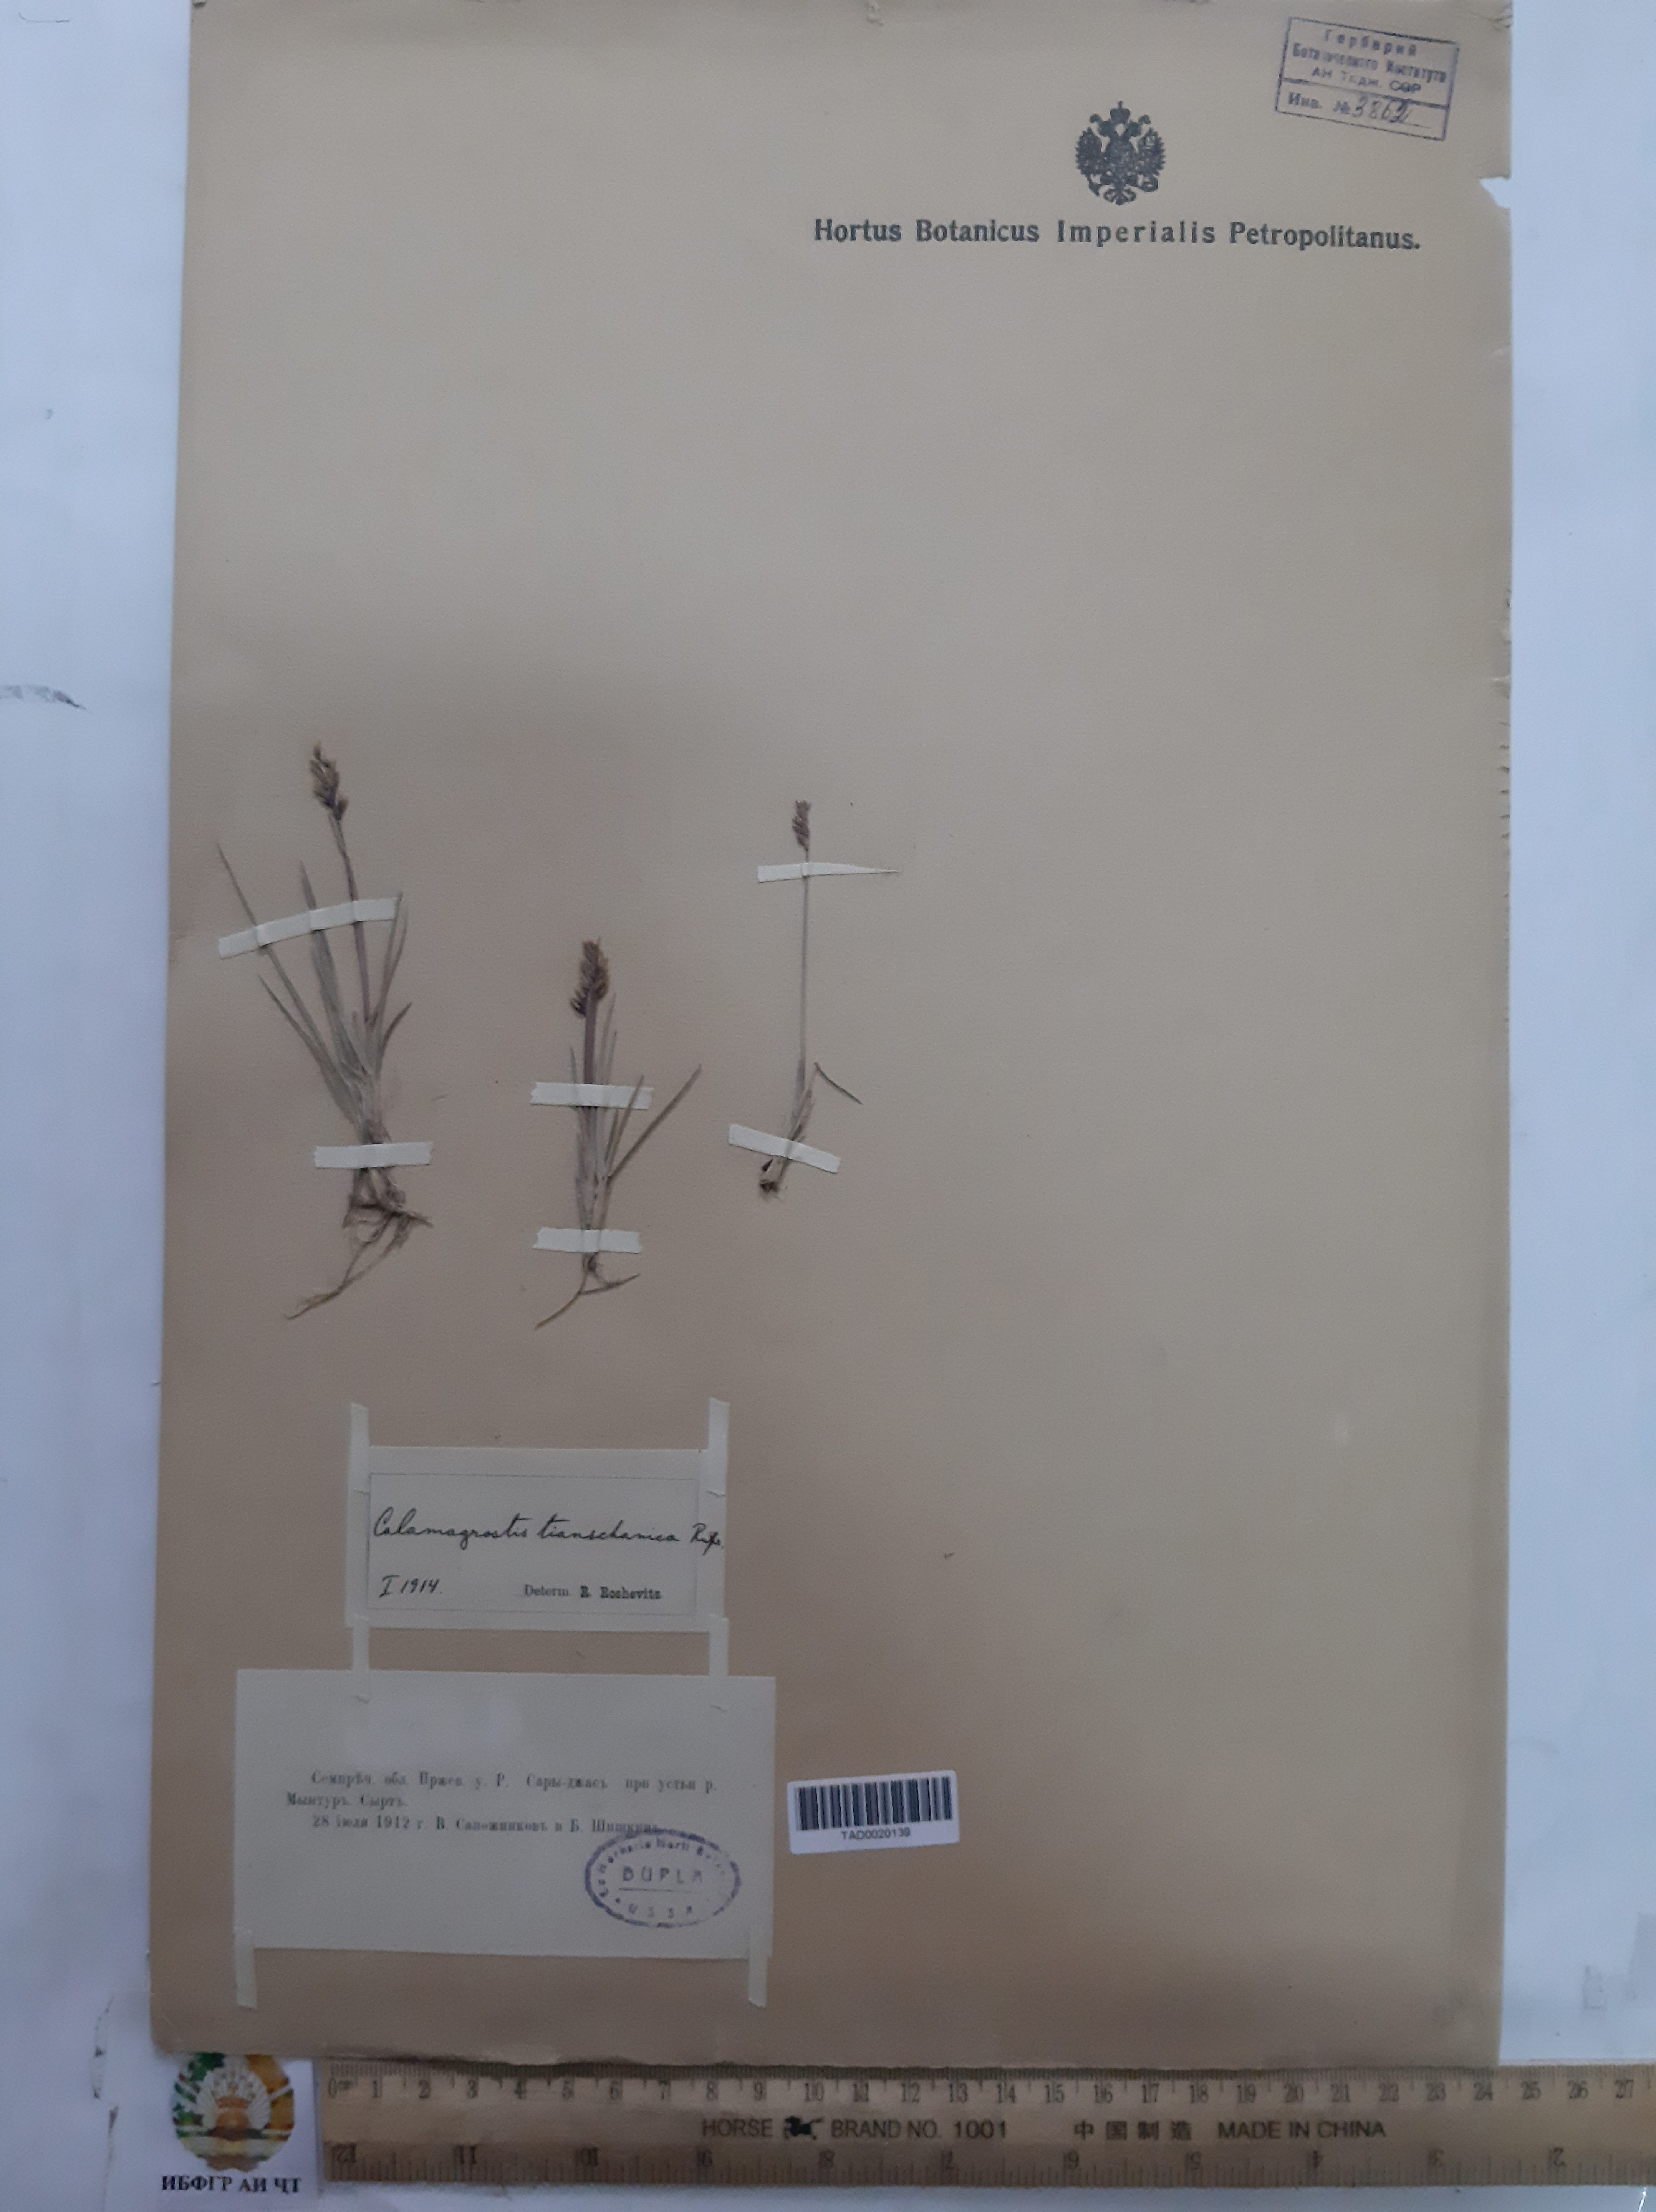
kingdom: Plantae
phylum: Tracheophyta
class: Liliopsida
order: Poales
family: Poaceae
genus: Calamagrostis
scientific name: Calamagrostis tianschanica
